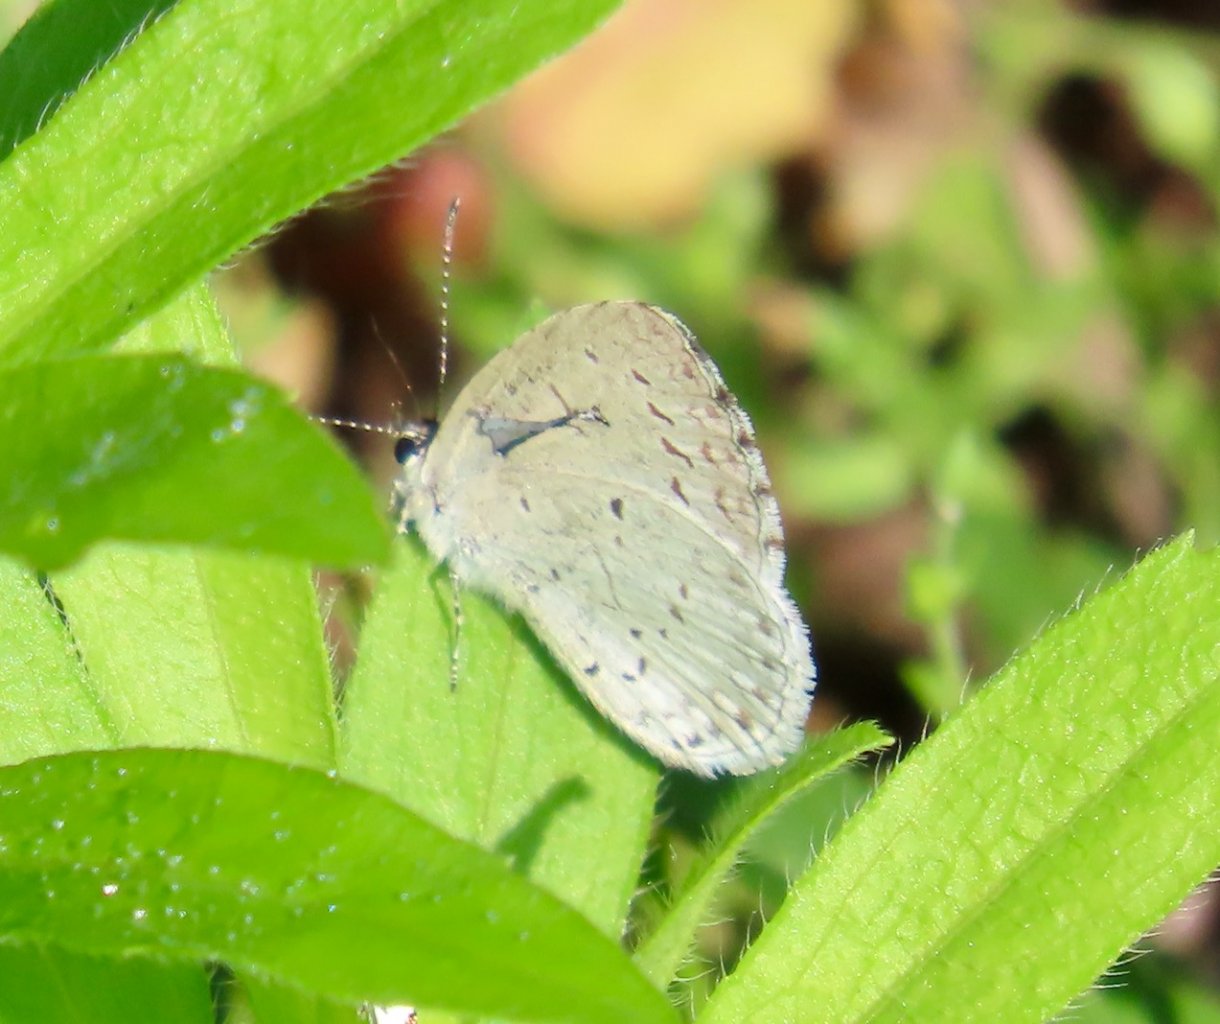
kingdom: Animalia
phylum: Arthropoda
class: Insecta
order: Lepidoptera
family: Lycaenidae
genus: Cyaniris
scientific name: Cyaniris neglecta
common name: Summer Azure
